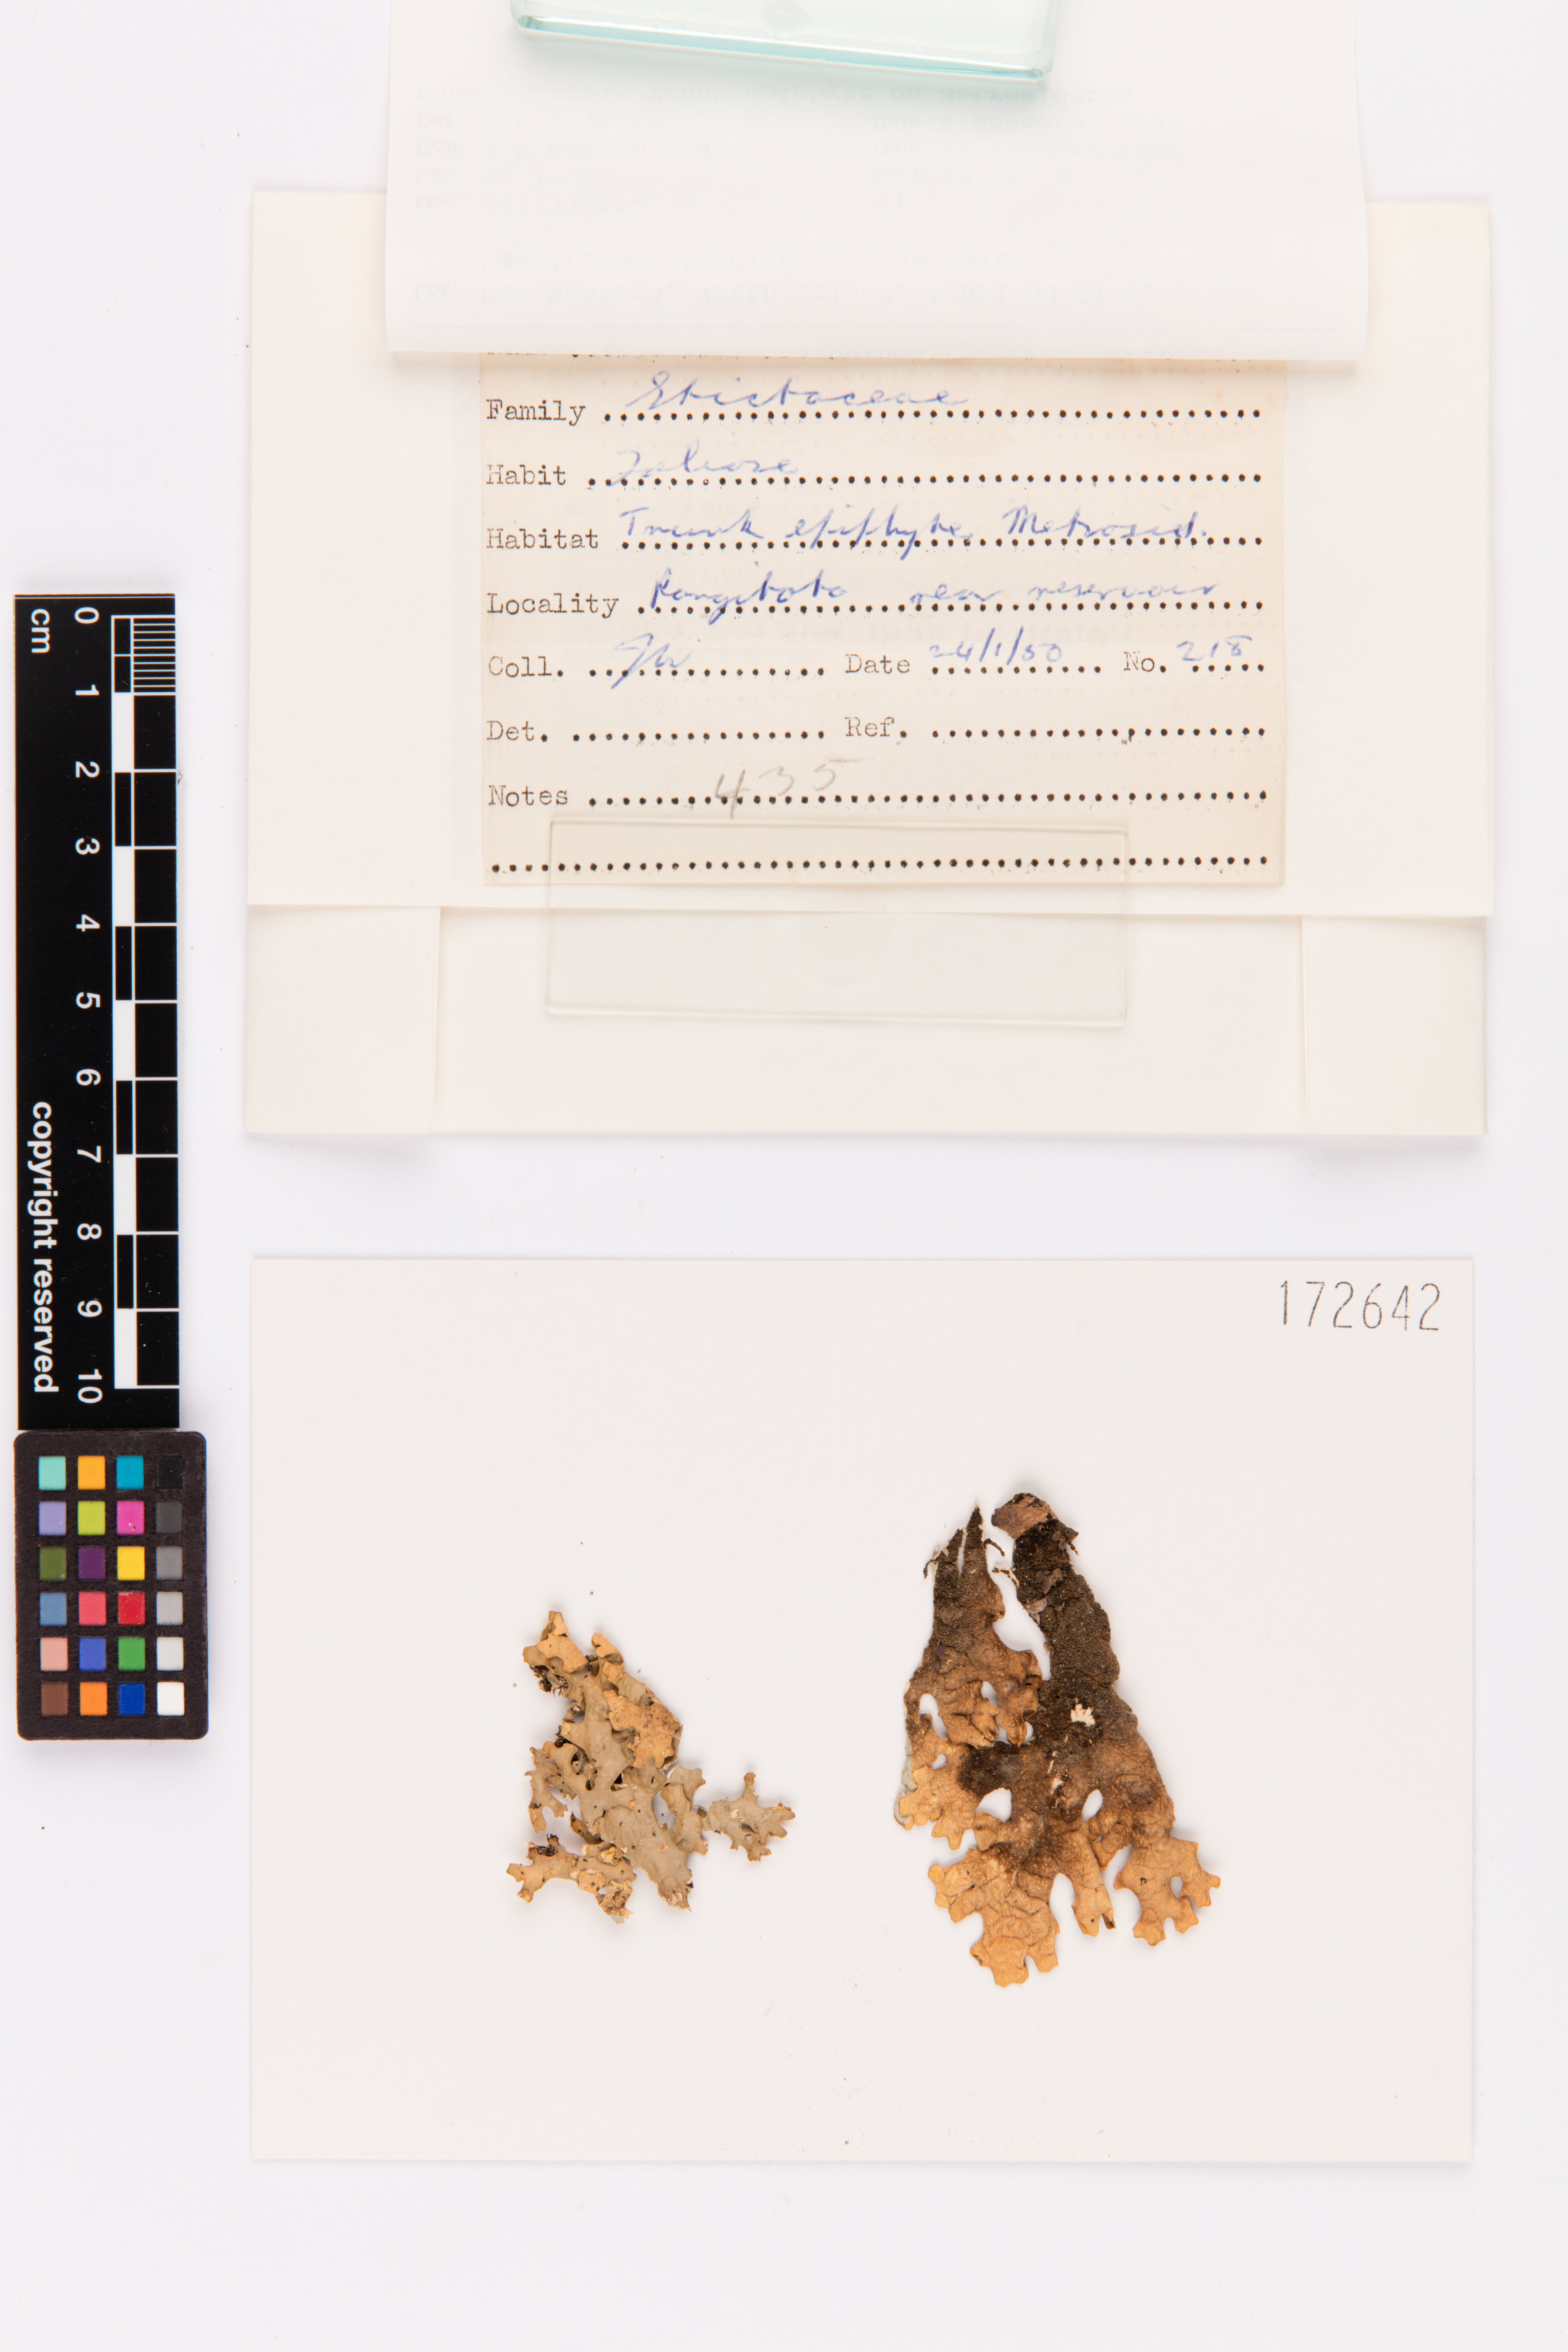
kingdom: Fungi
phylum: Ascomycota
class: Lecanoromycetes
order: Peltigerales
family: Lobariaceae
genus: Pseudocyphellaria
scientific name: Pseudocyphellaria carpoloma
